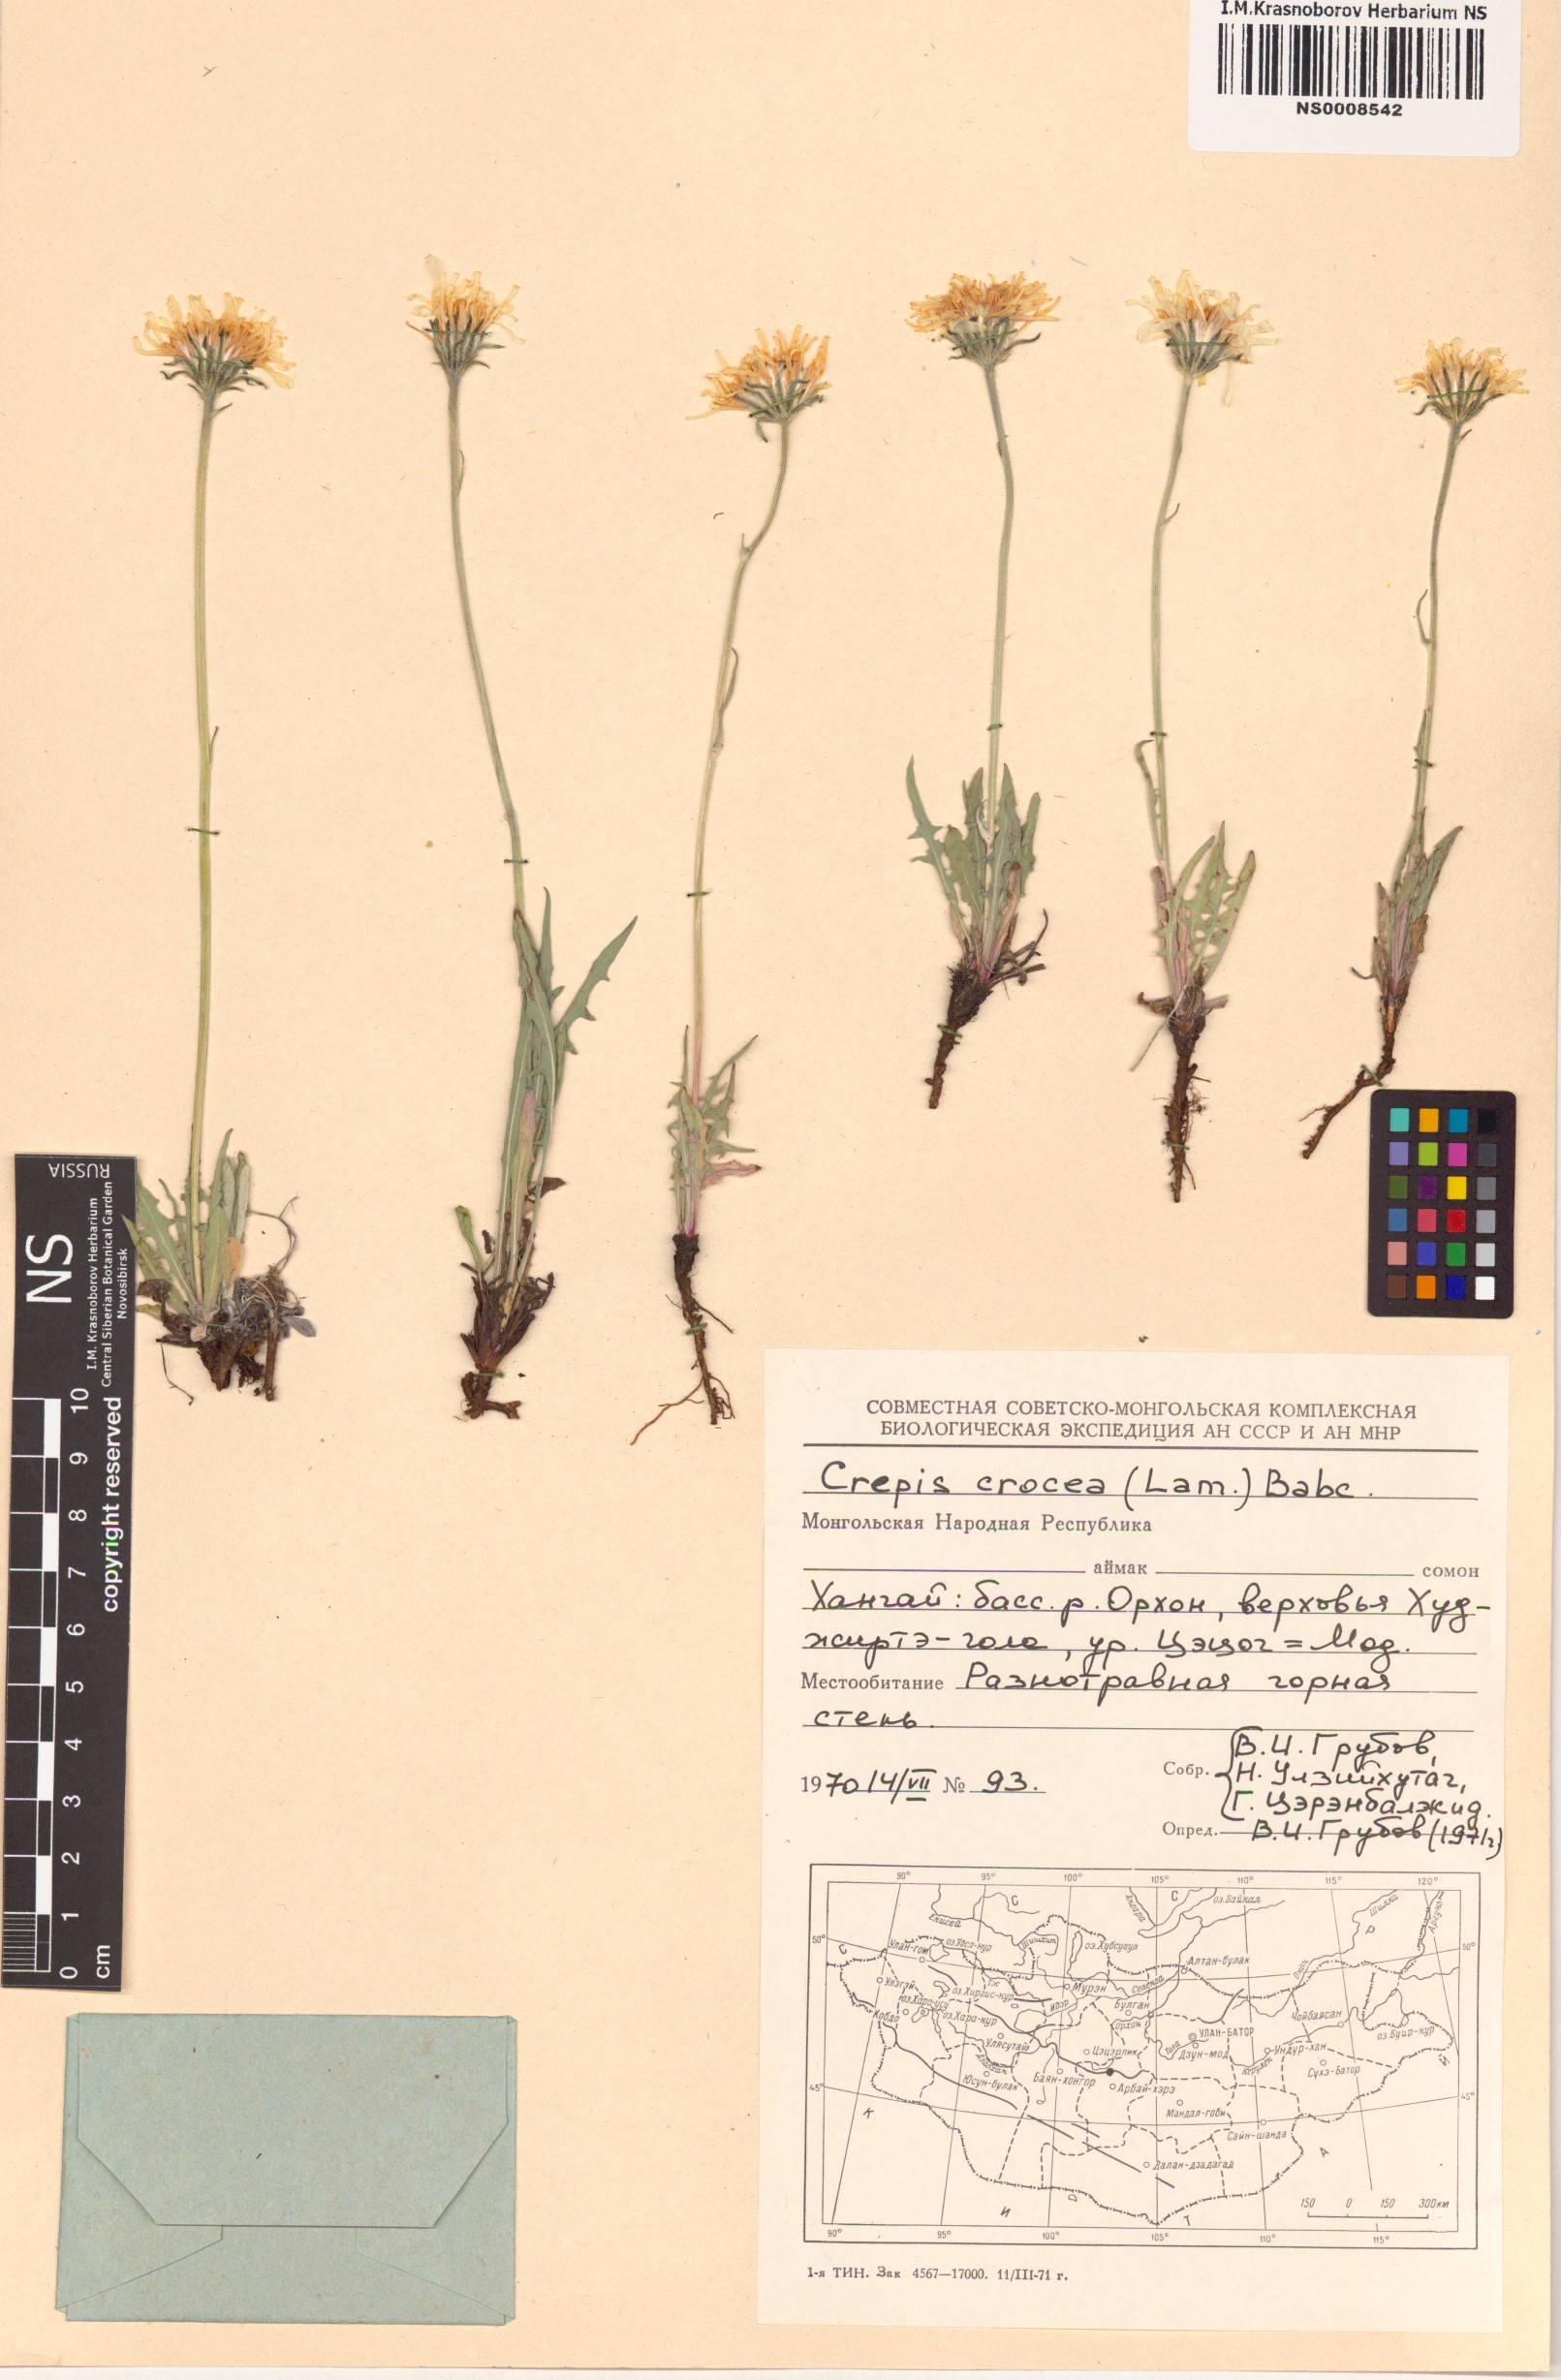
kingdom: Plantae
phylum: Tracheophyta
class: Magnoliopsida
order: Asterales
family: Asteraceae
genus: Crepis
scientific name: Crepis crocea
